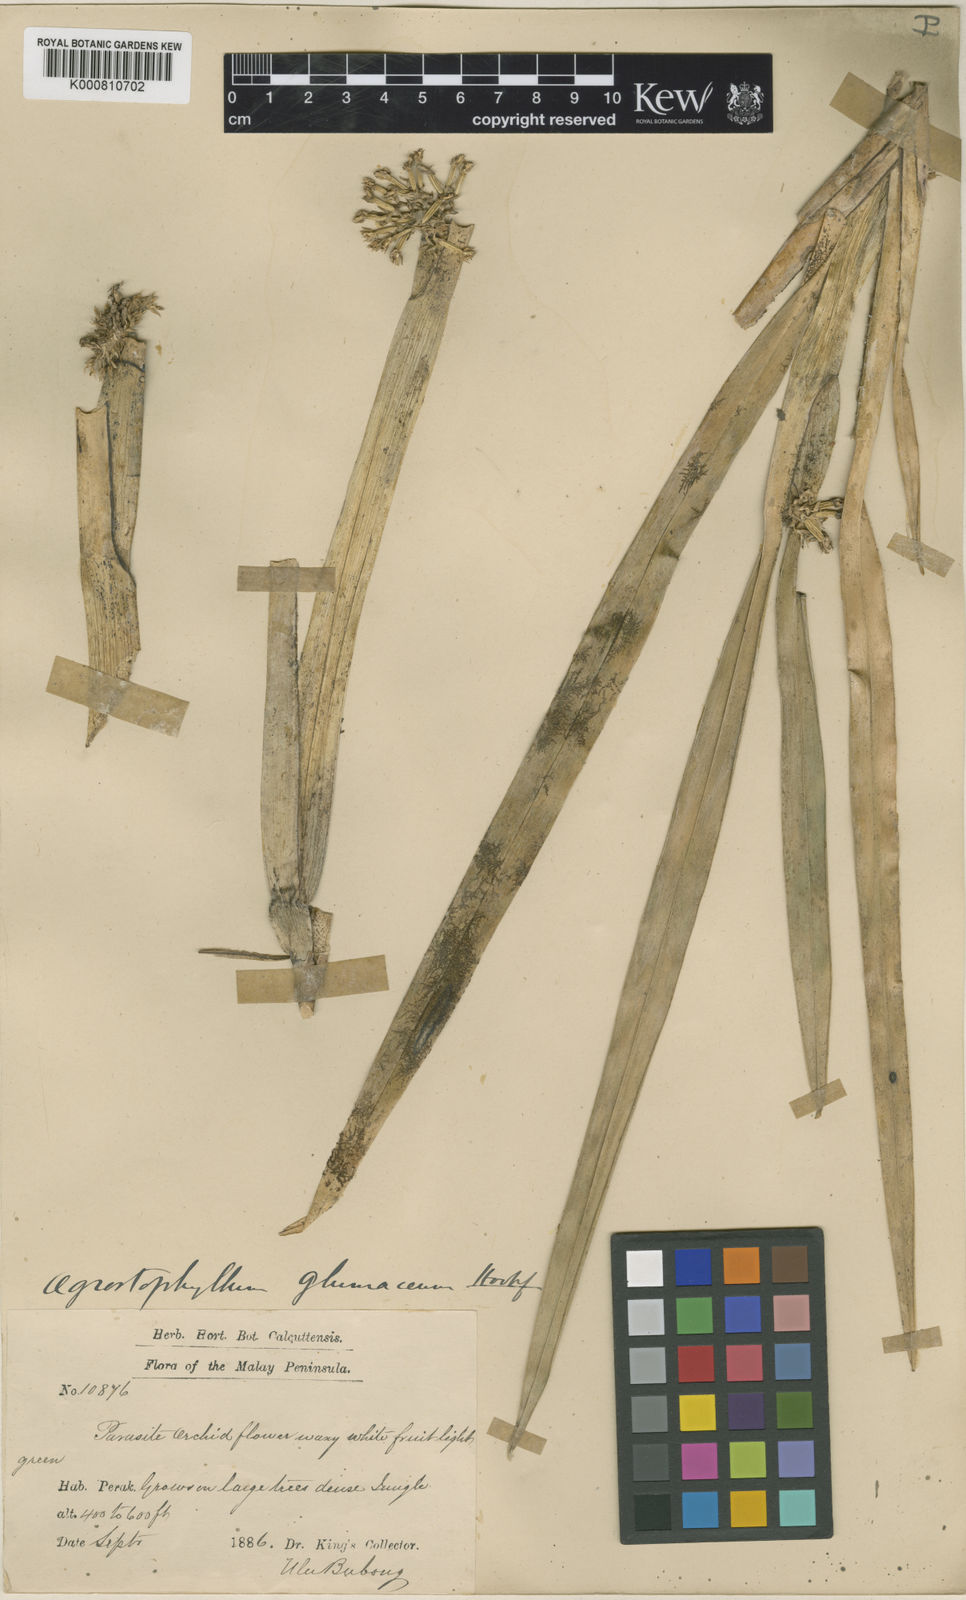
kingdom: Plantae
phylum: Tracheophyta
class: Liliopsida
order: Asparagales
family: Orchidaceae
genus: Agrostophyllum
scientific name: Agrostophyllum glumaceum
